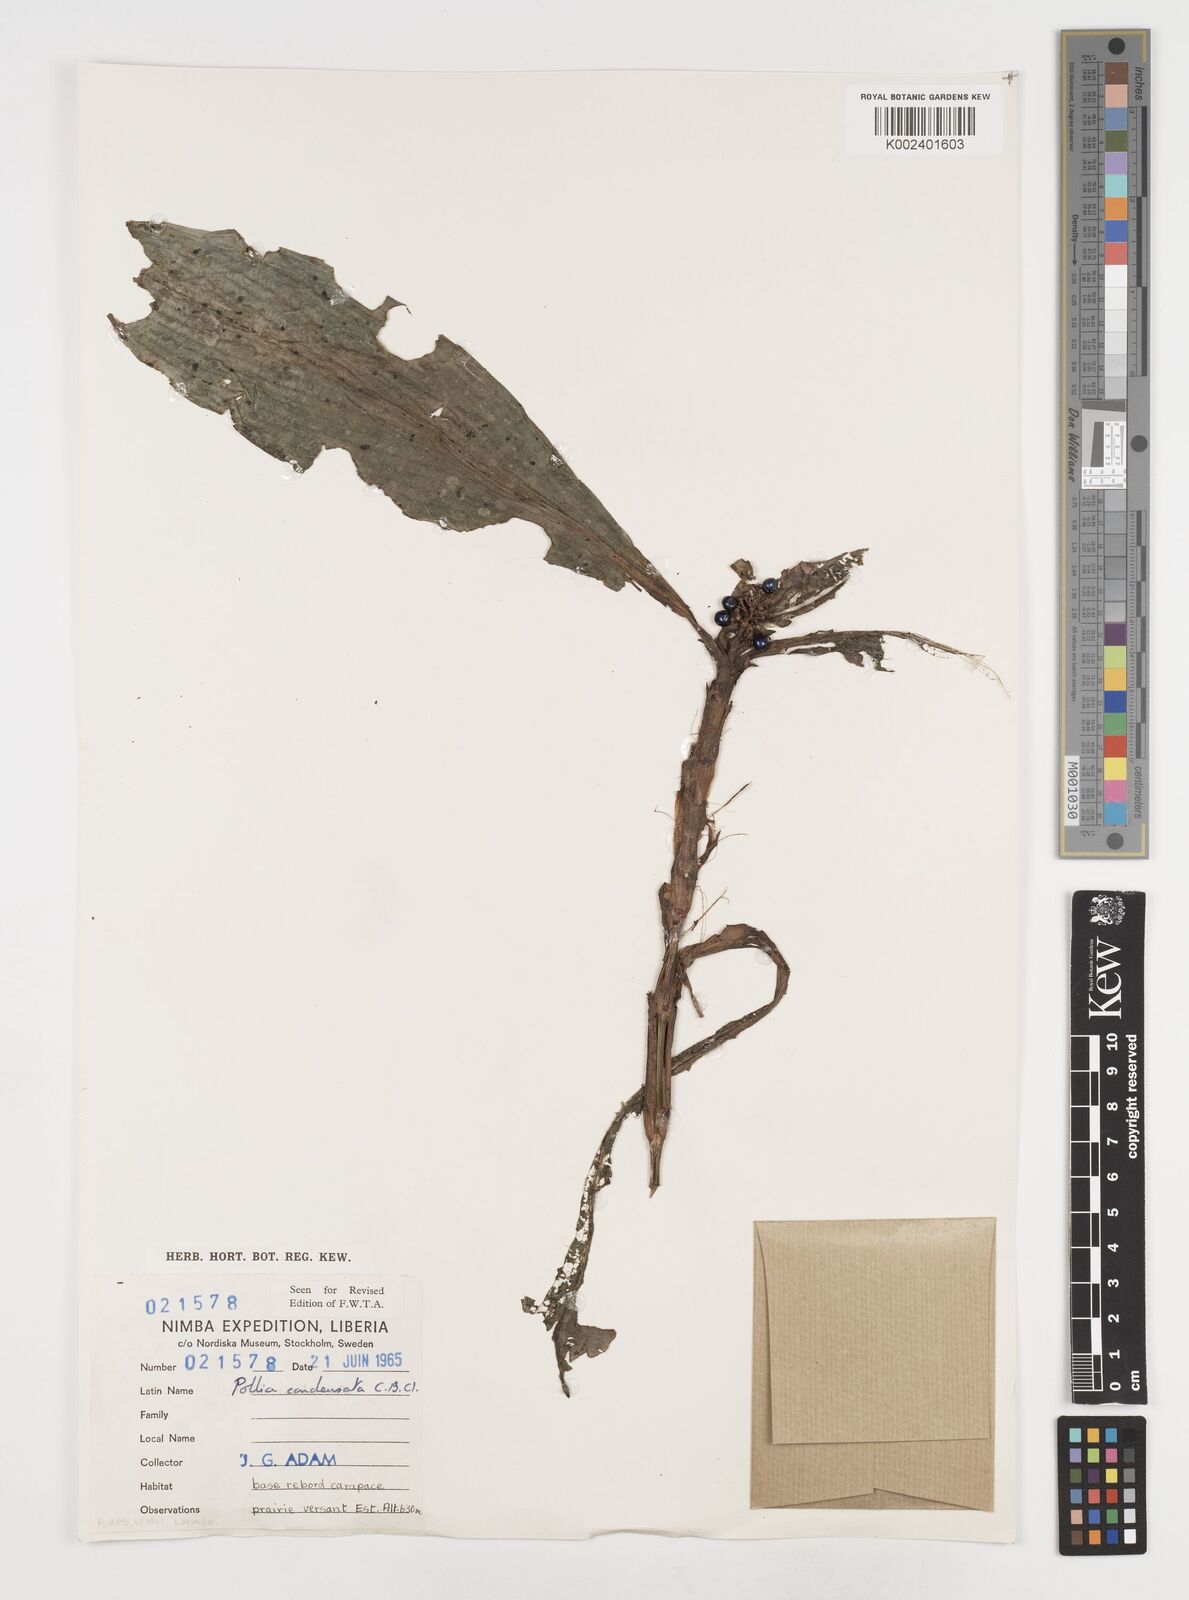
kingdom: Plantae
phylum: Tracheophyta
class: Liliopsida
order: Commelinales
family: Commelinaceae
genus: Pollia
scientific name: Pollia condensata
